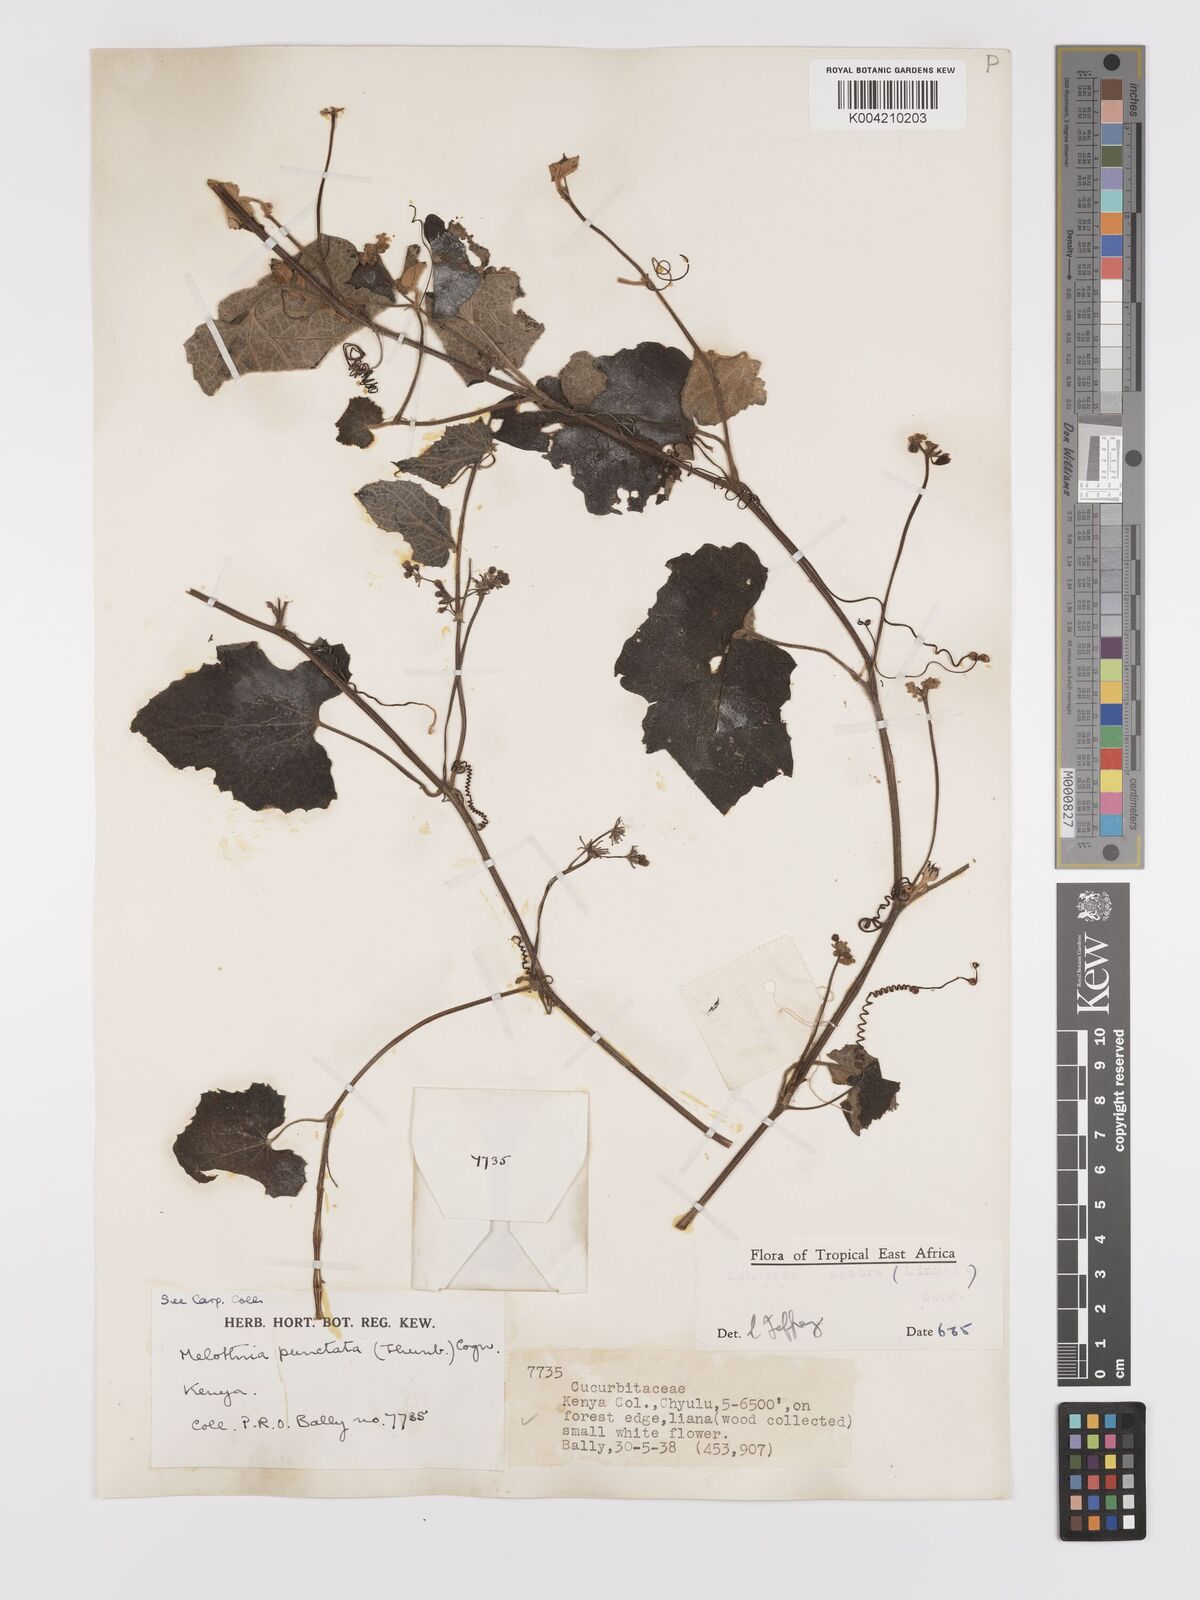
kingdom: Plantae
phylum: Tracheophyta
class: Magnoliopsida
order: Cucurbitales
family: Cucurbitaceae
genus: Zehneria
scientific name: Zehneria scabra
